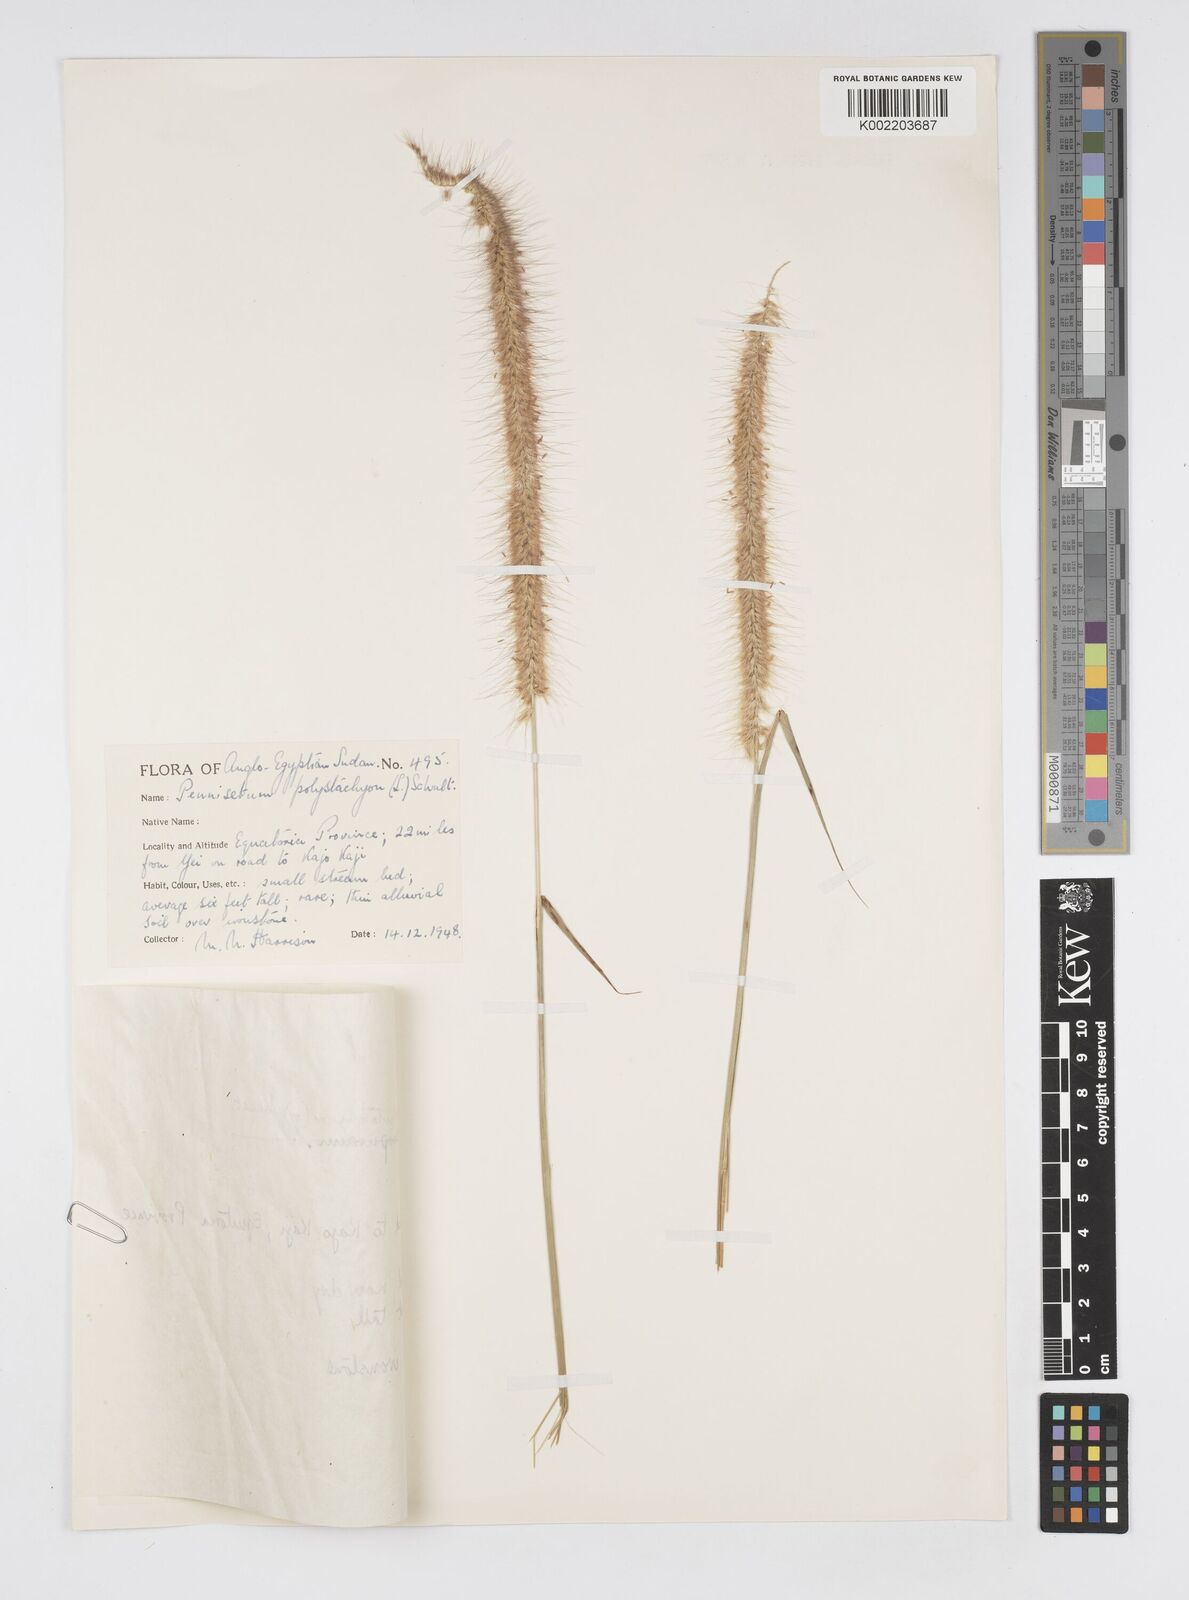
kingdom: Plantae
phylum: Tracheophyta
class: Liliopsida
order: Poales
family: Poaceae
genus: Setaria
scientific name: Setaria parviflora
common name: Knotroot bristle-grass
